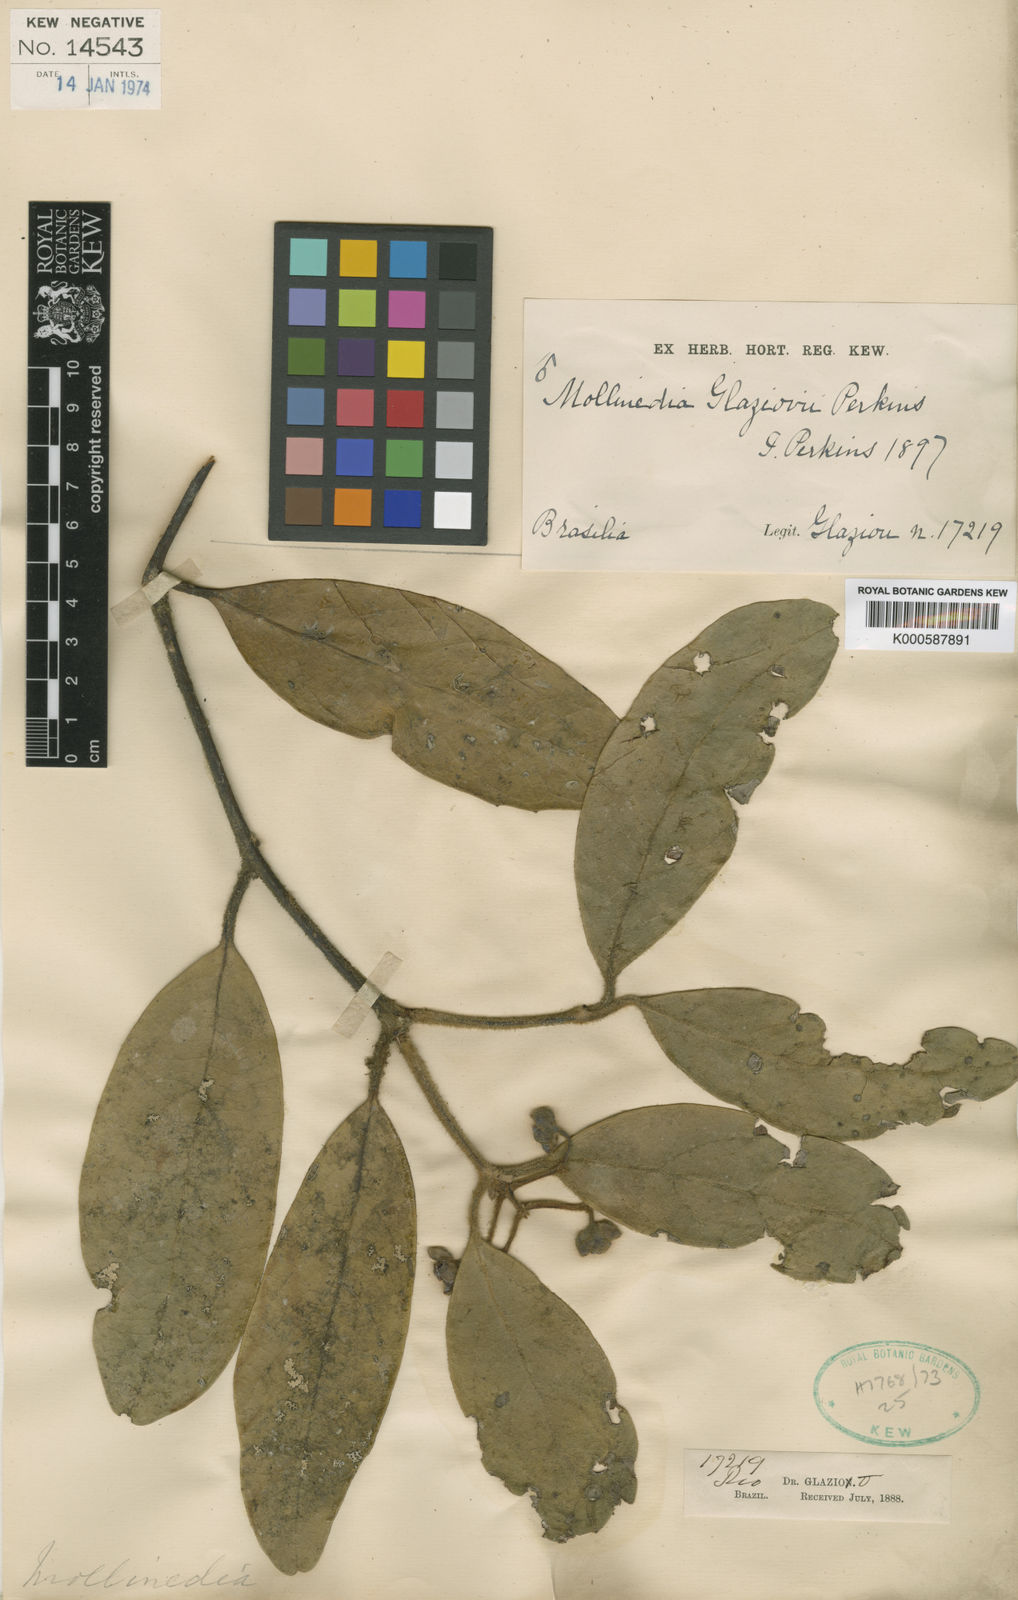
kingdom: Plantae
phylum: Tracheophyta
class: Magnoliopsida
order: Laurales
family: Monimiaceae
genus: Mollinedia
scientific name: Mollinedia glaziovii
